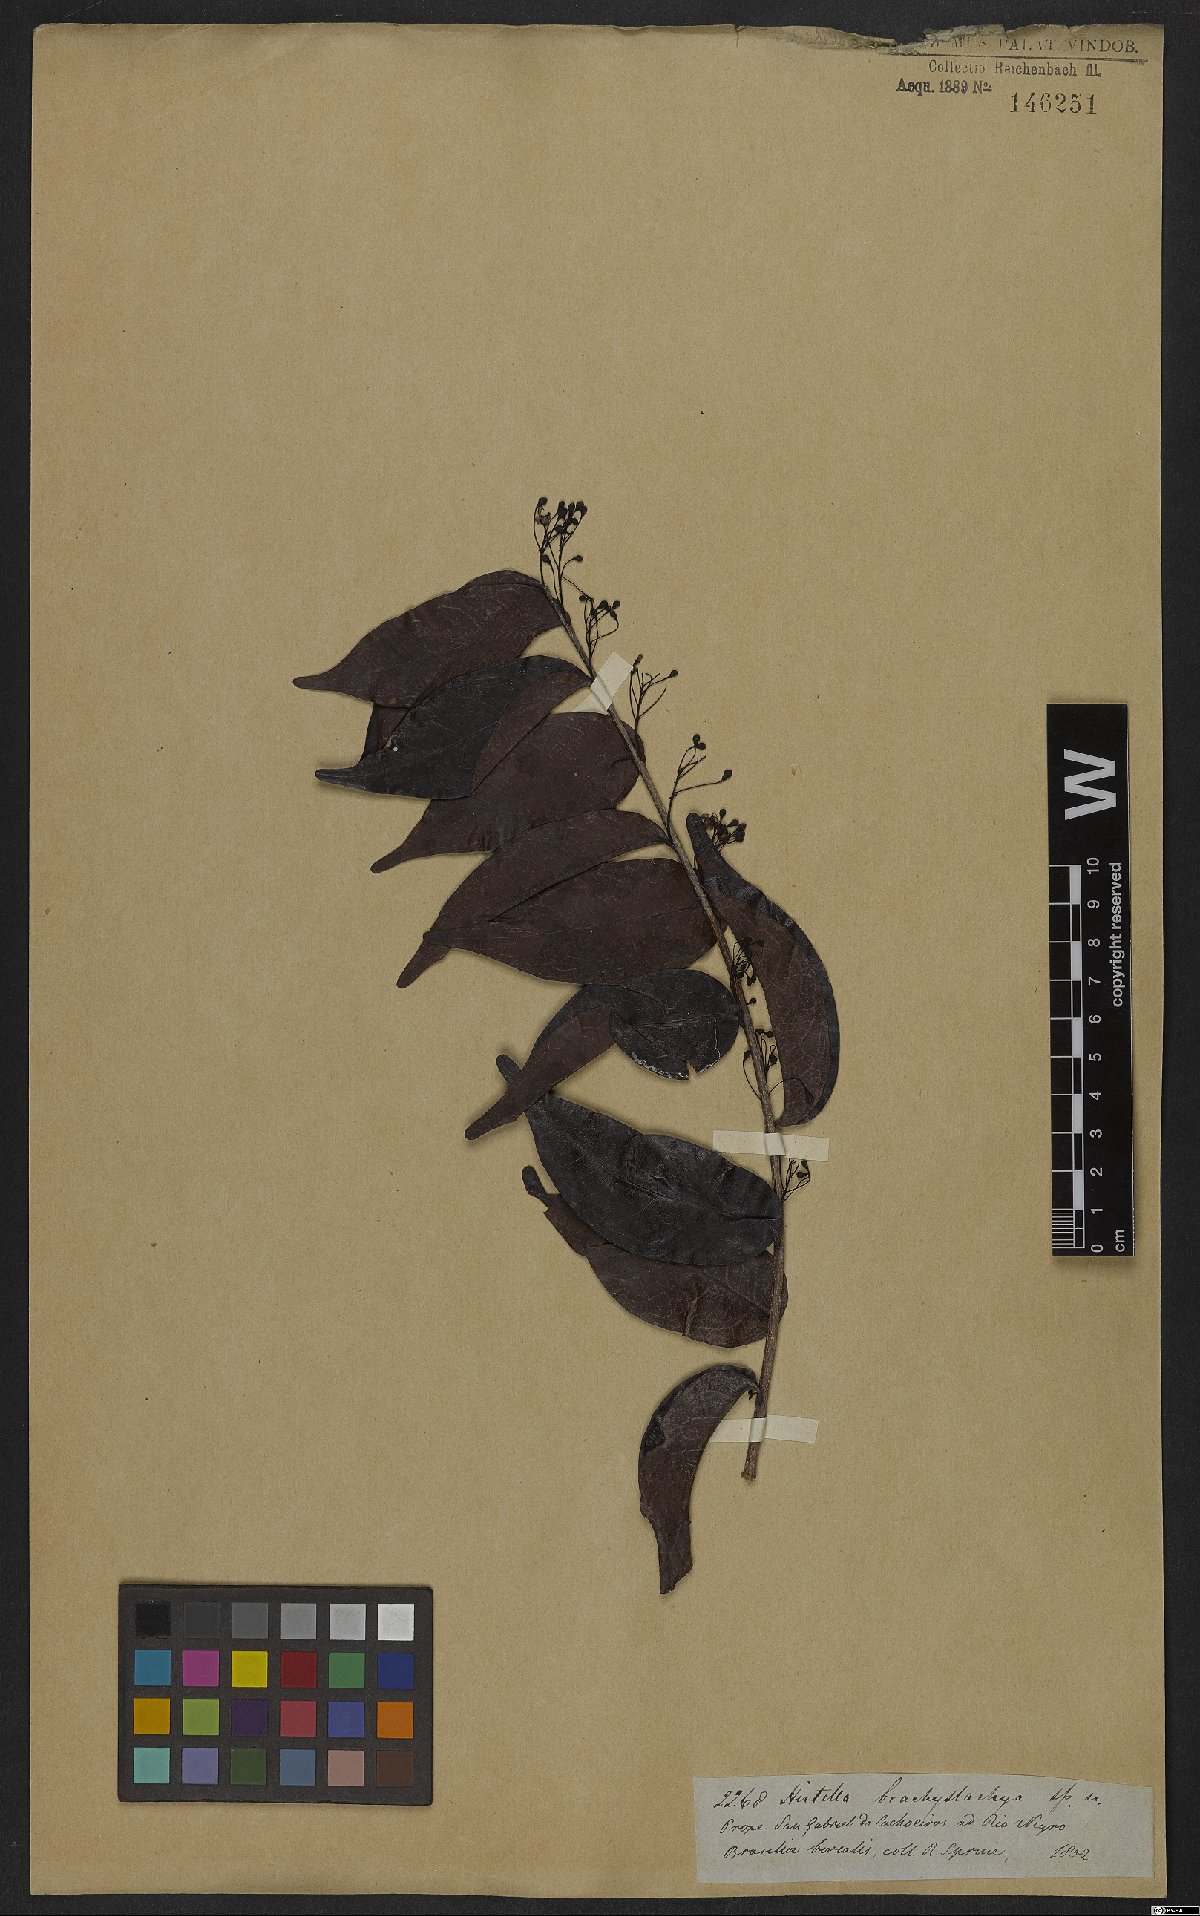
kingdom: Plantae
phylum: Tracheophyta
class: Magnoliopsida
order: Malpighiales
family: Chrysobalanaceae
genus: Hirtella
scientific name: Hirtella brachystachya
